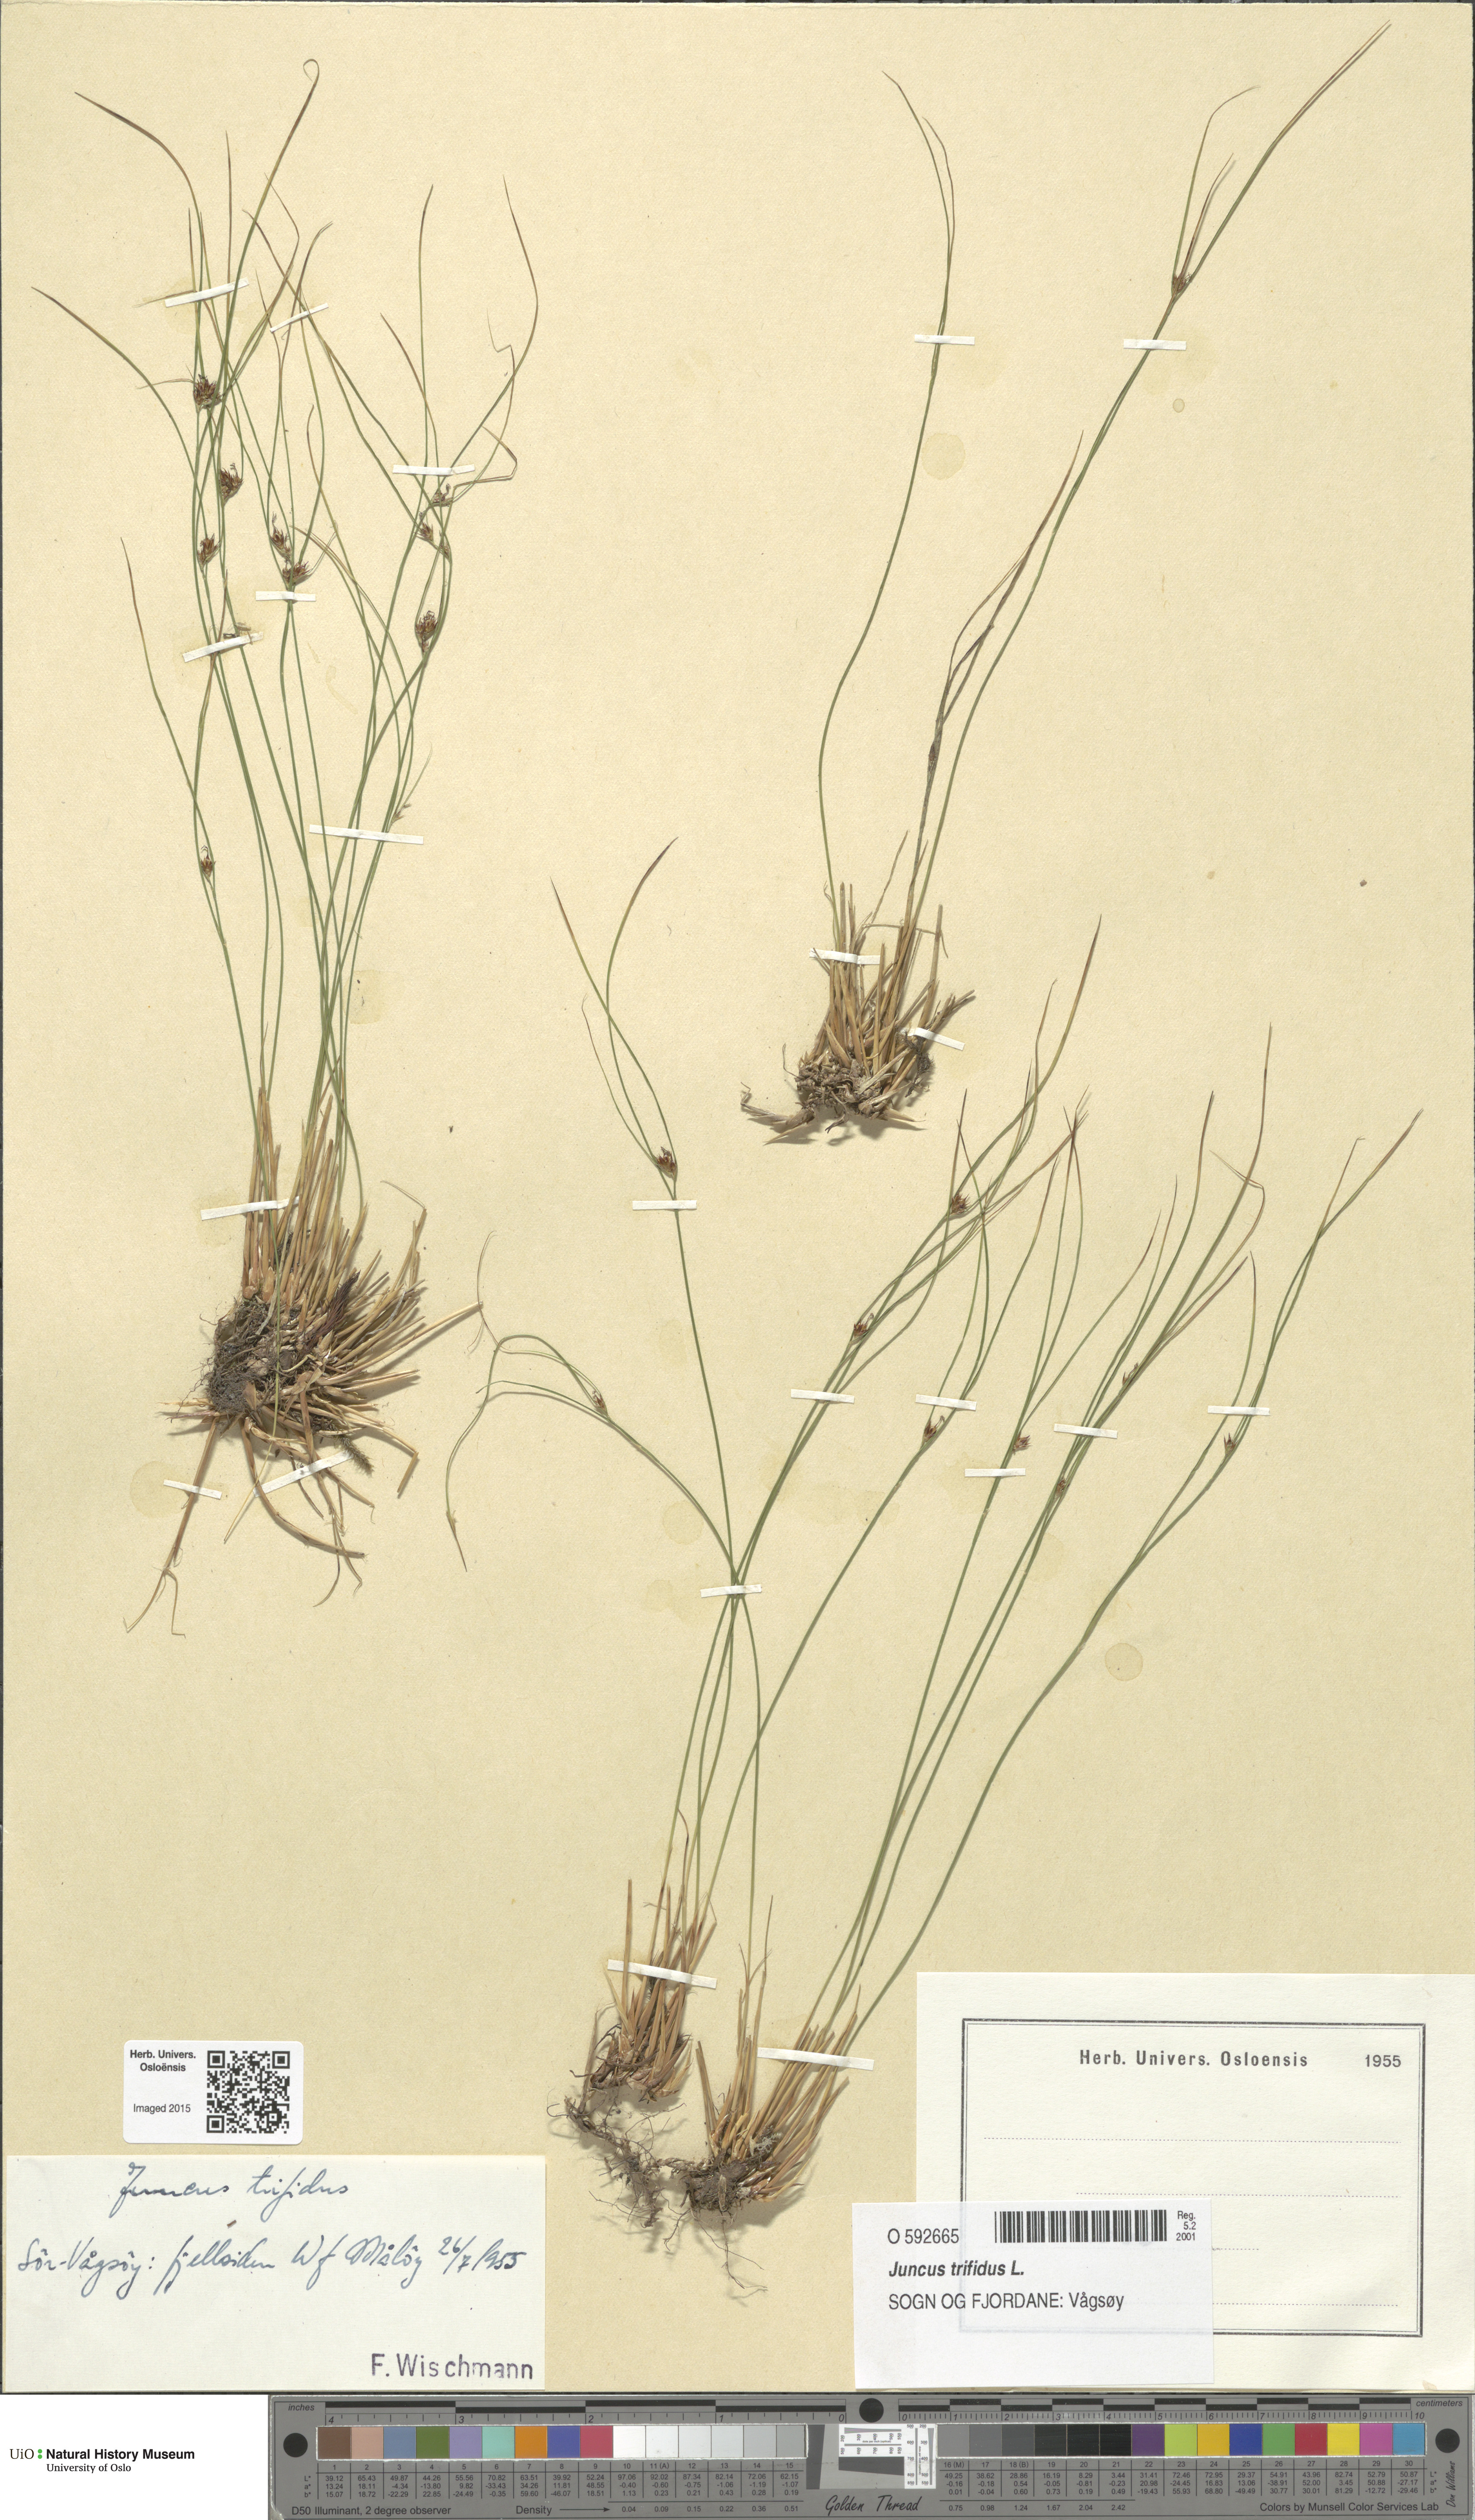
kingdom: Plantae
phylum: Tracheophyta
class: Liliopsida
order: Poales
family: Juncaceae
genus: Oreojuncus
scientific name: Oreojuncus trifidus
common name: Highland rush
